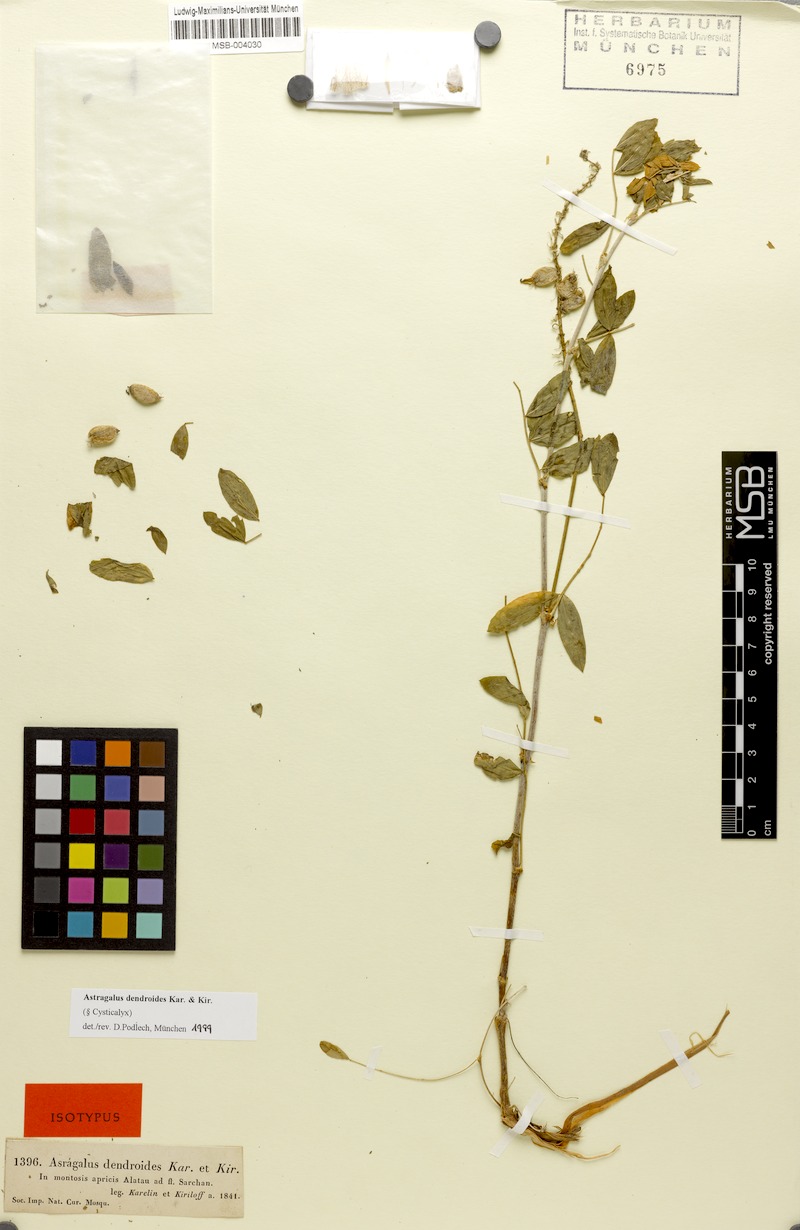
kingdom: Plantae
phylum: Tracheophyta
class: Magnoliopsida
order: Fabales
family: Fabaceae
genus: Astragalus
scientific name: Astragalus dendroides
